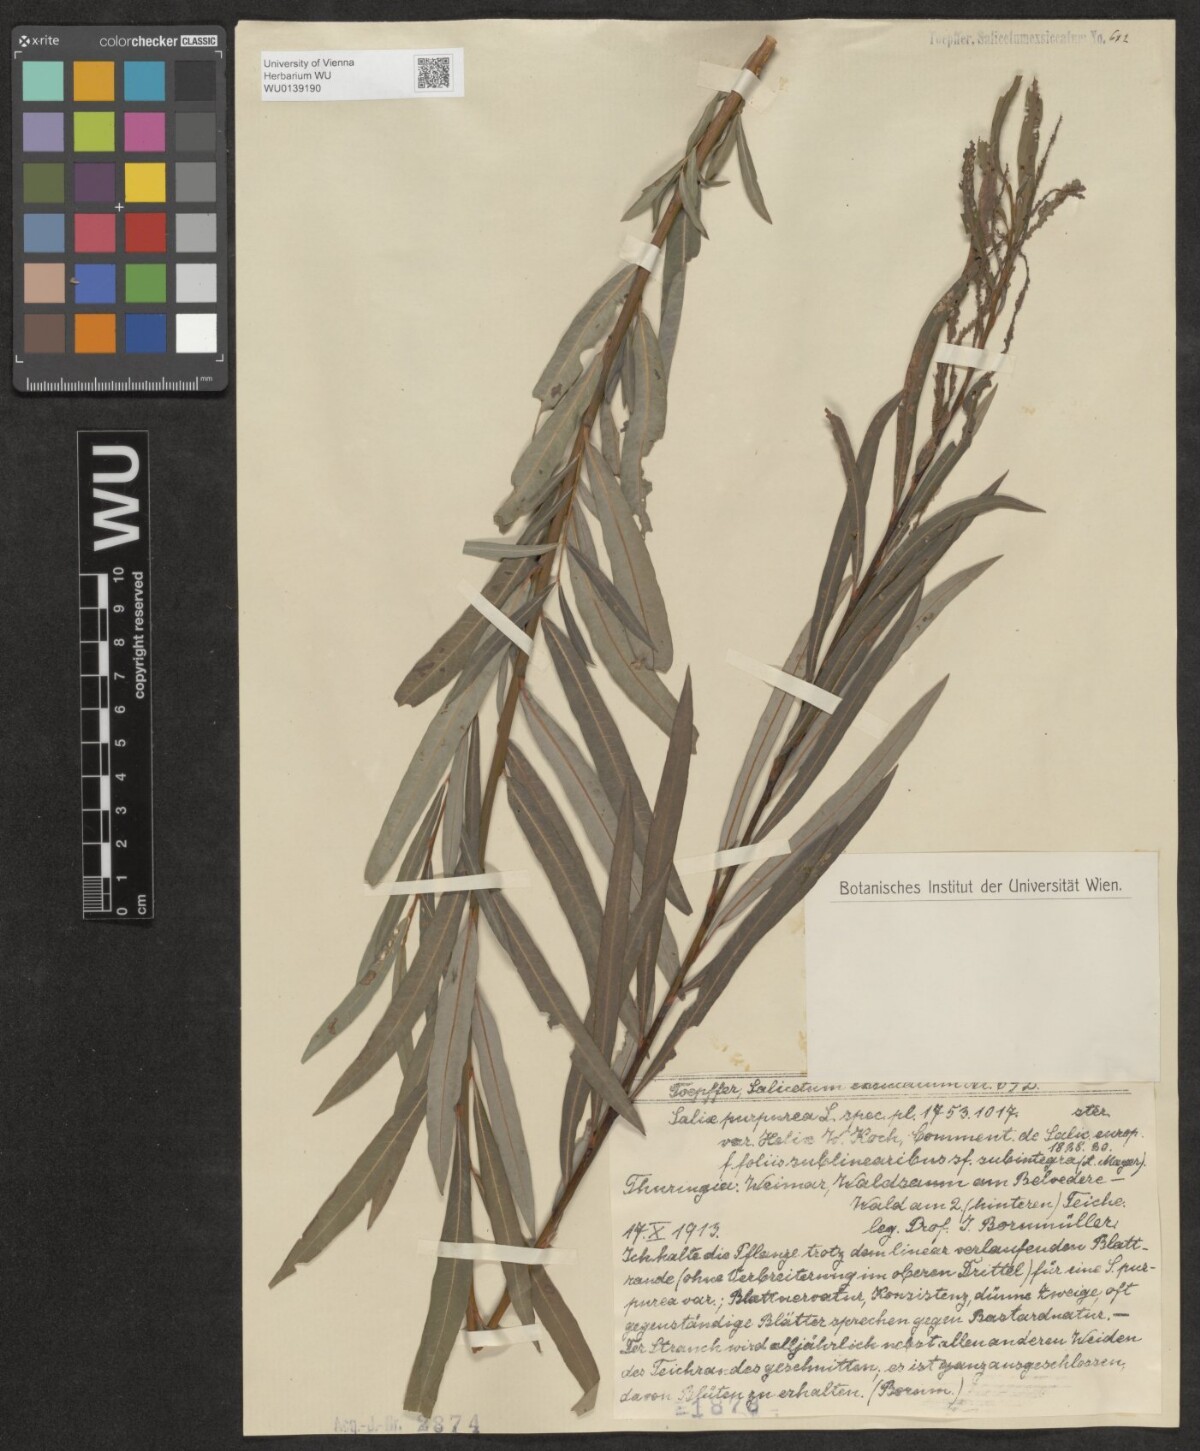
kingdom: Plantae
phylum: Tracheophyta
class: Magnoliopsida
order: Malpighiales
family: Salicaceae
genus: Salix
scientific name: Salix purpurea
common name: Purple willow
